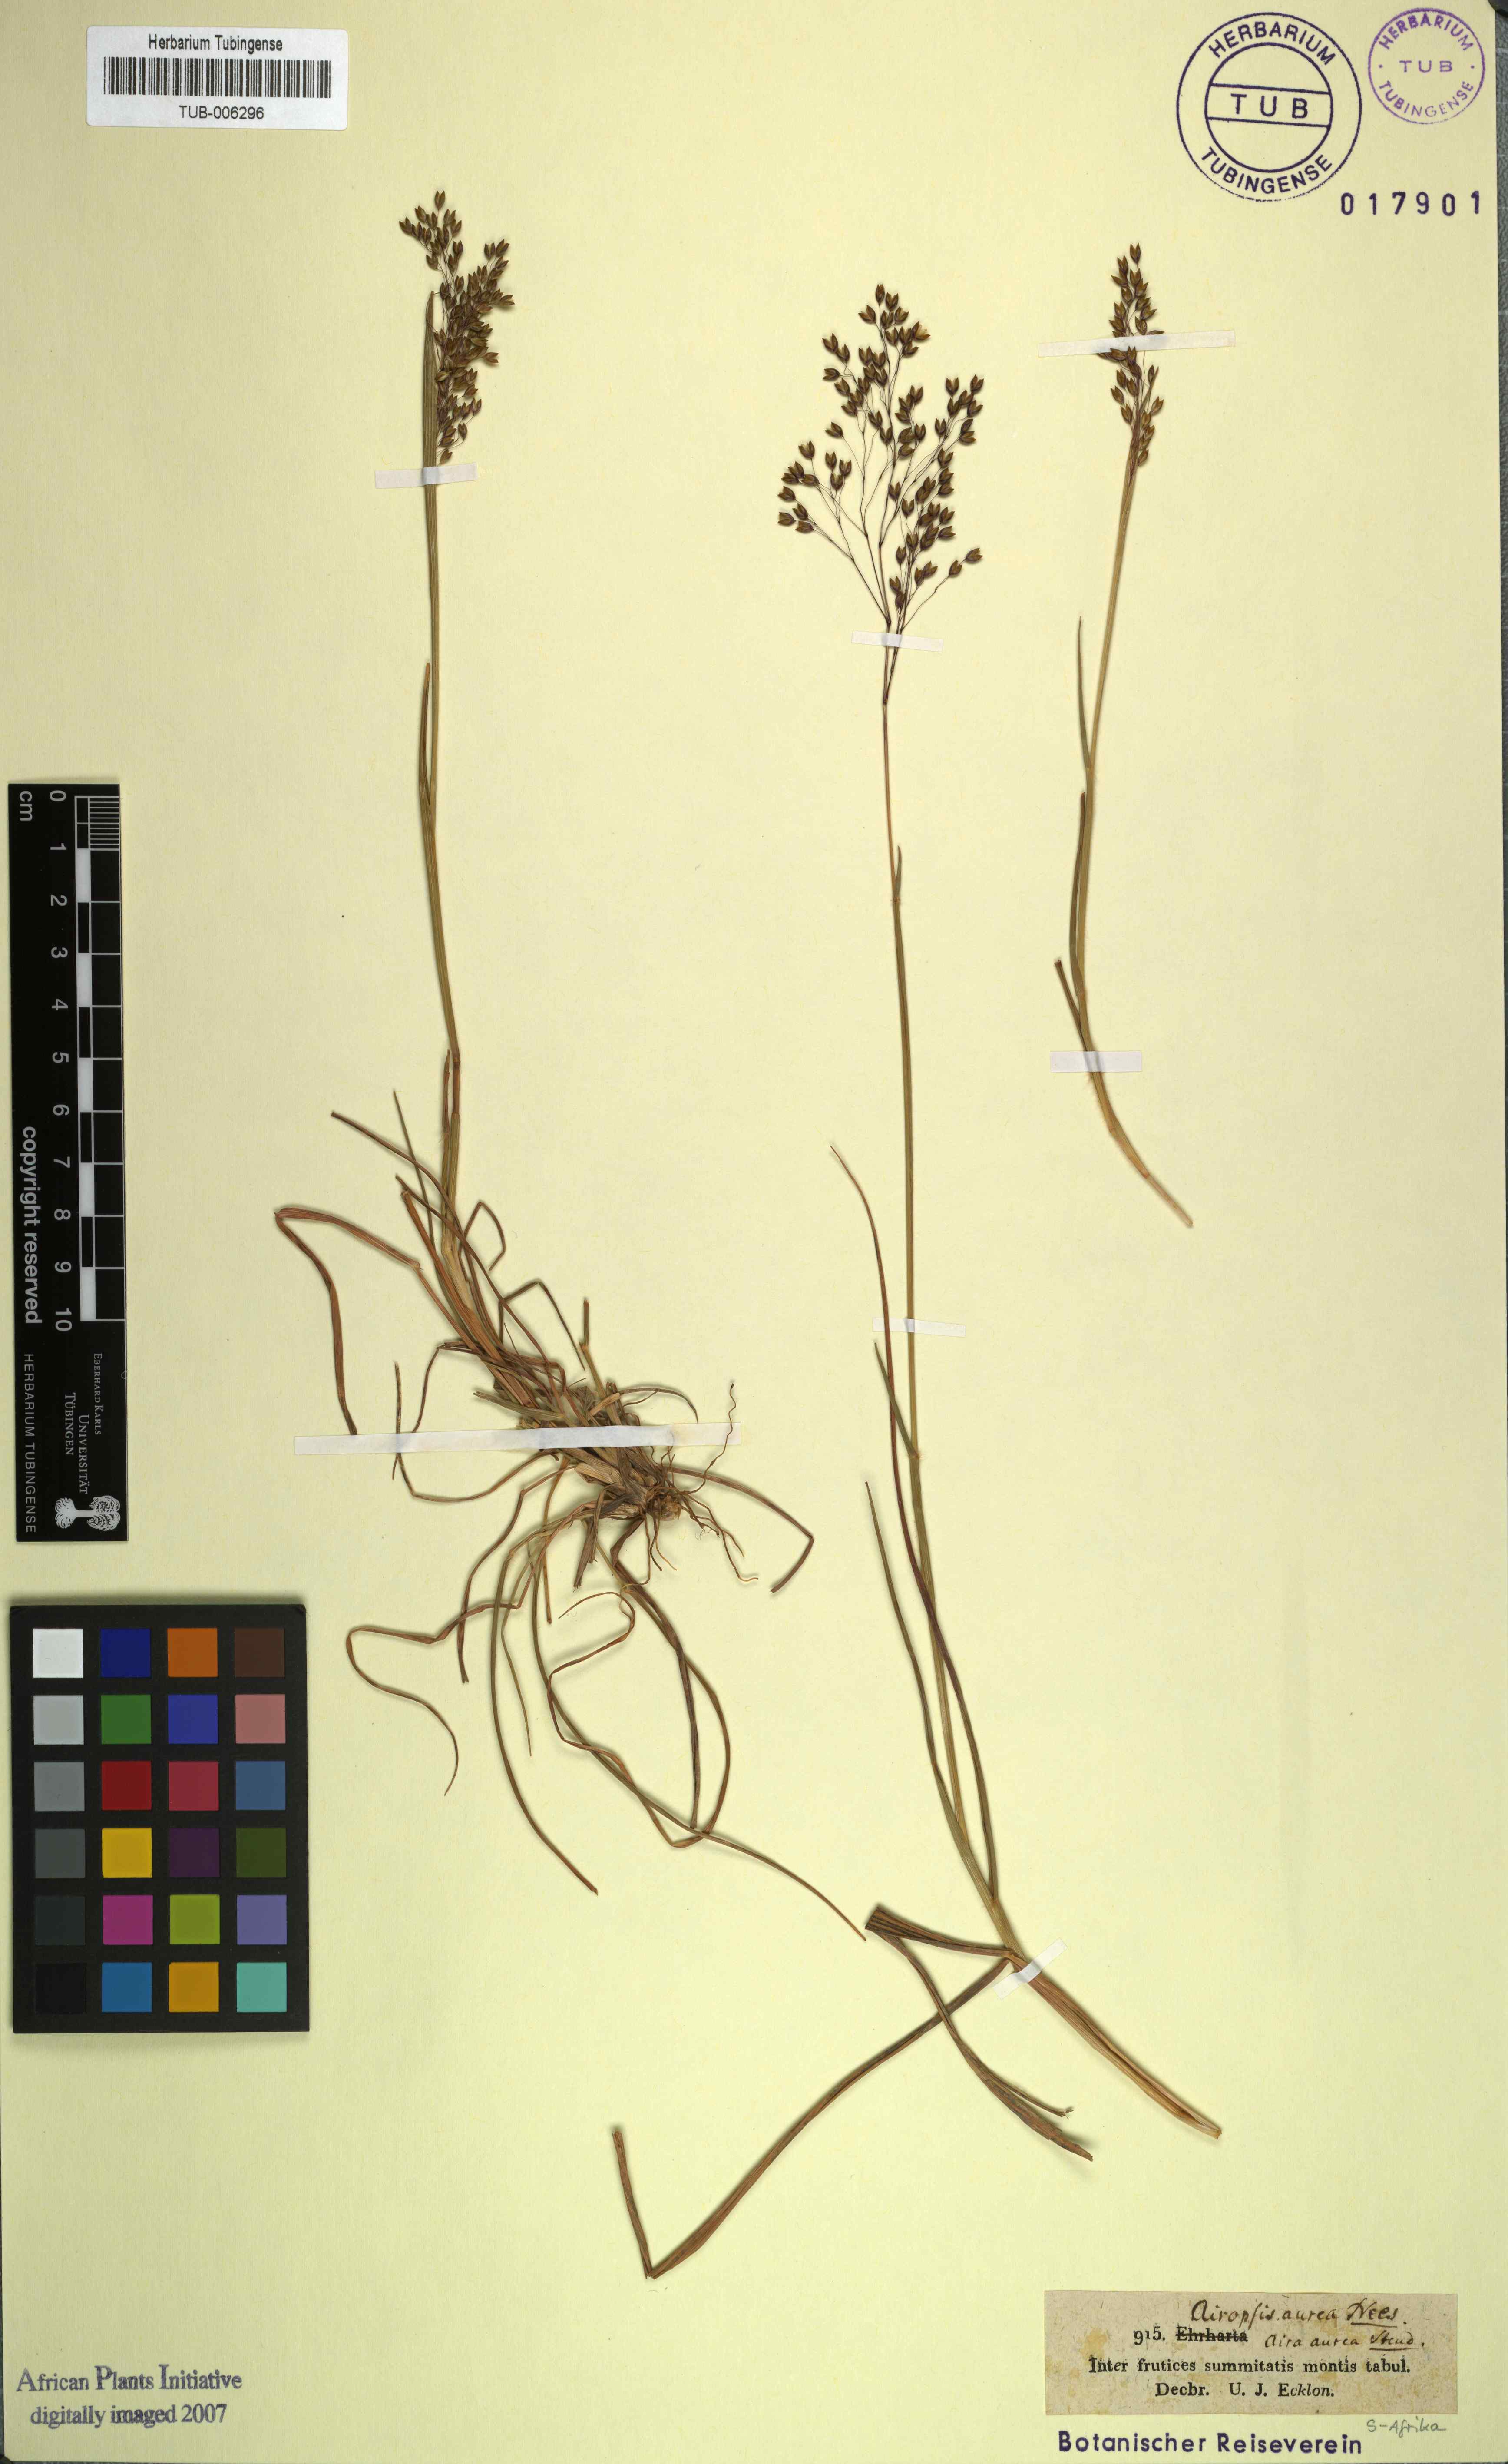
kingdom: Plantae
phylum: Tracheophyta
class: Liliopsida
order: Poales
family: Poaceae
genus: Pentameris
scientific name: Pentameris aurea
